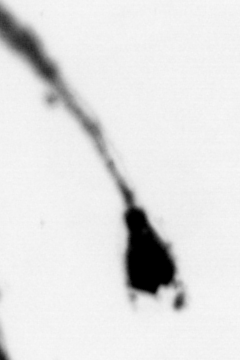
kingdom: Animalia
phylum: Cnidaria
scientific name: Cnidaria
